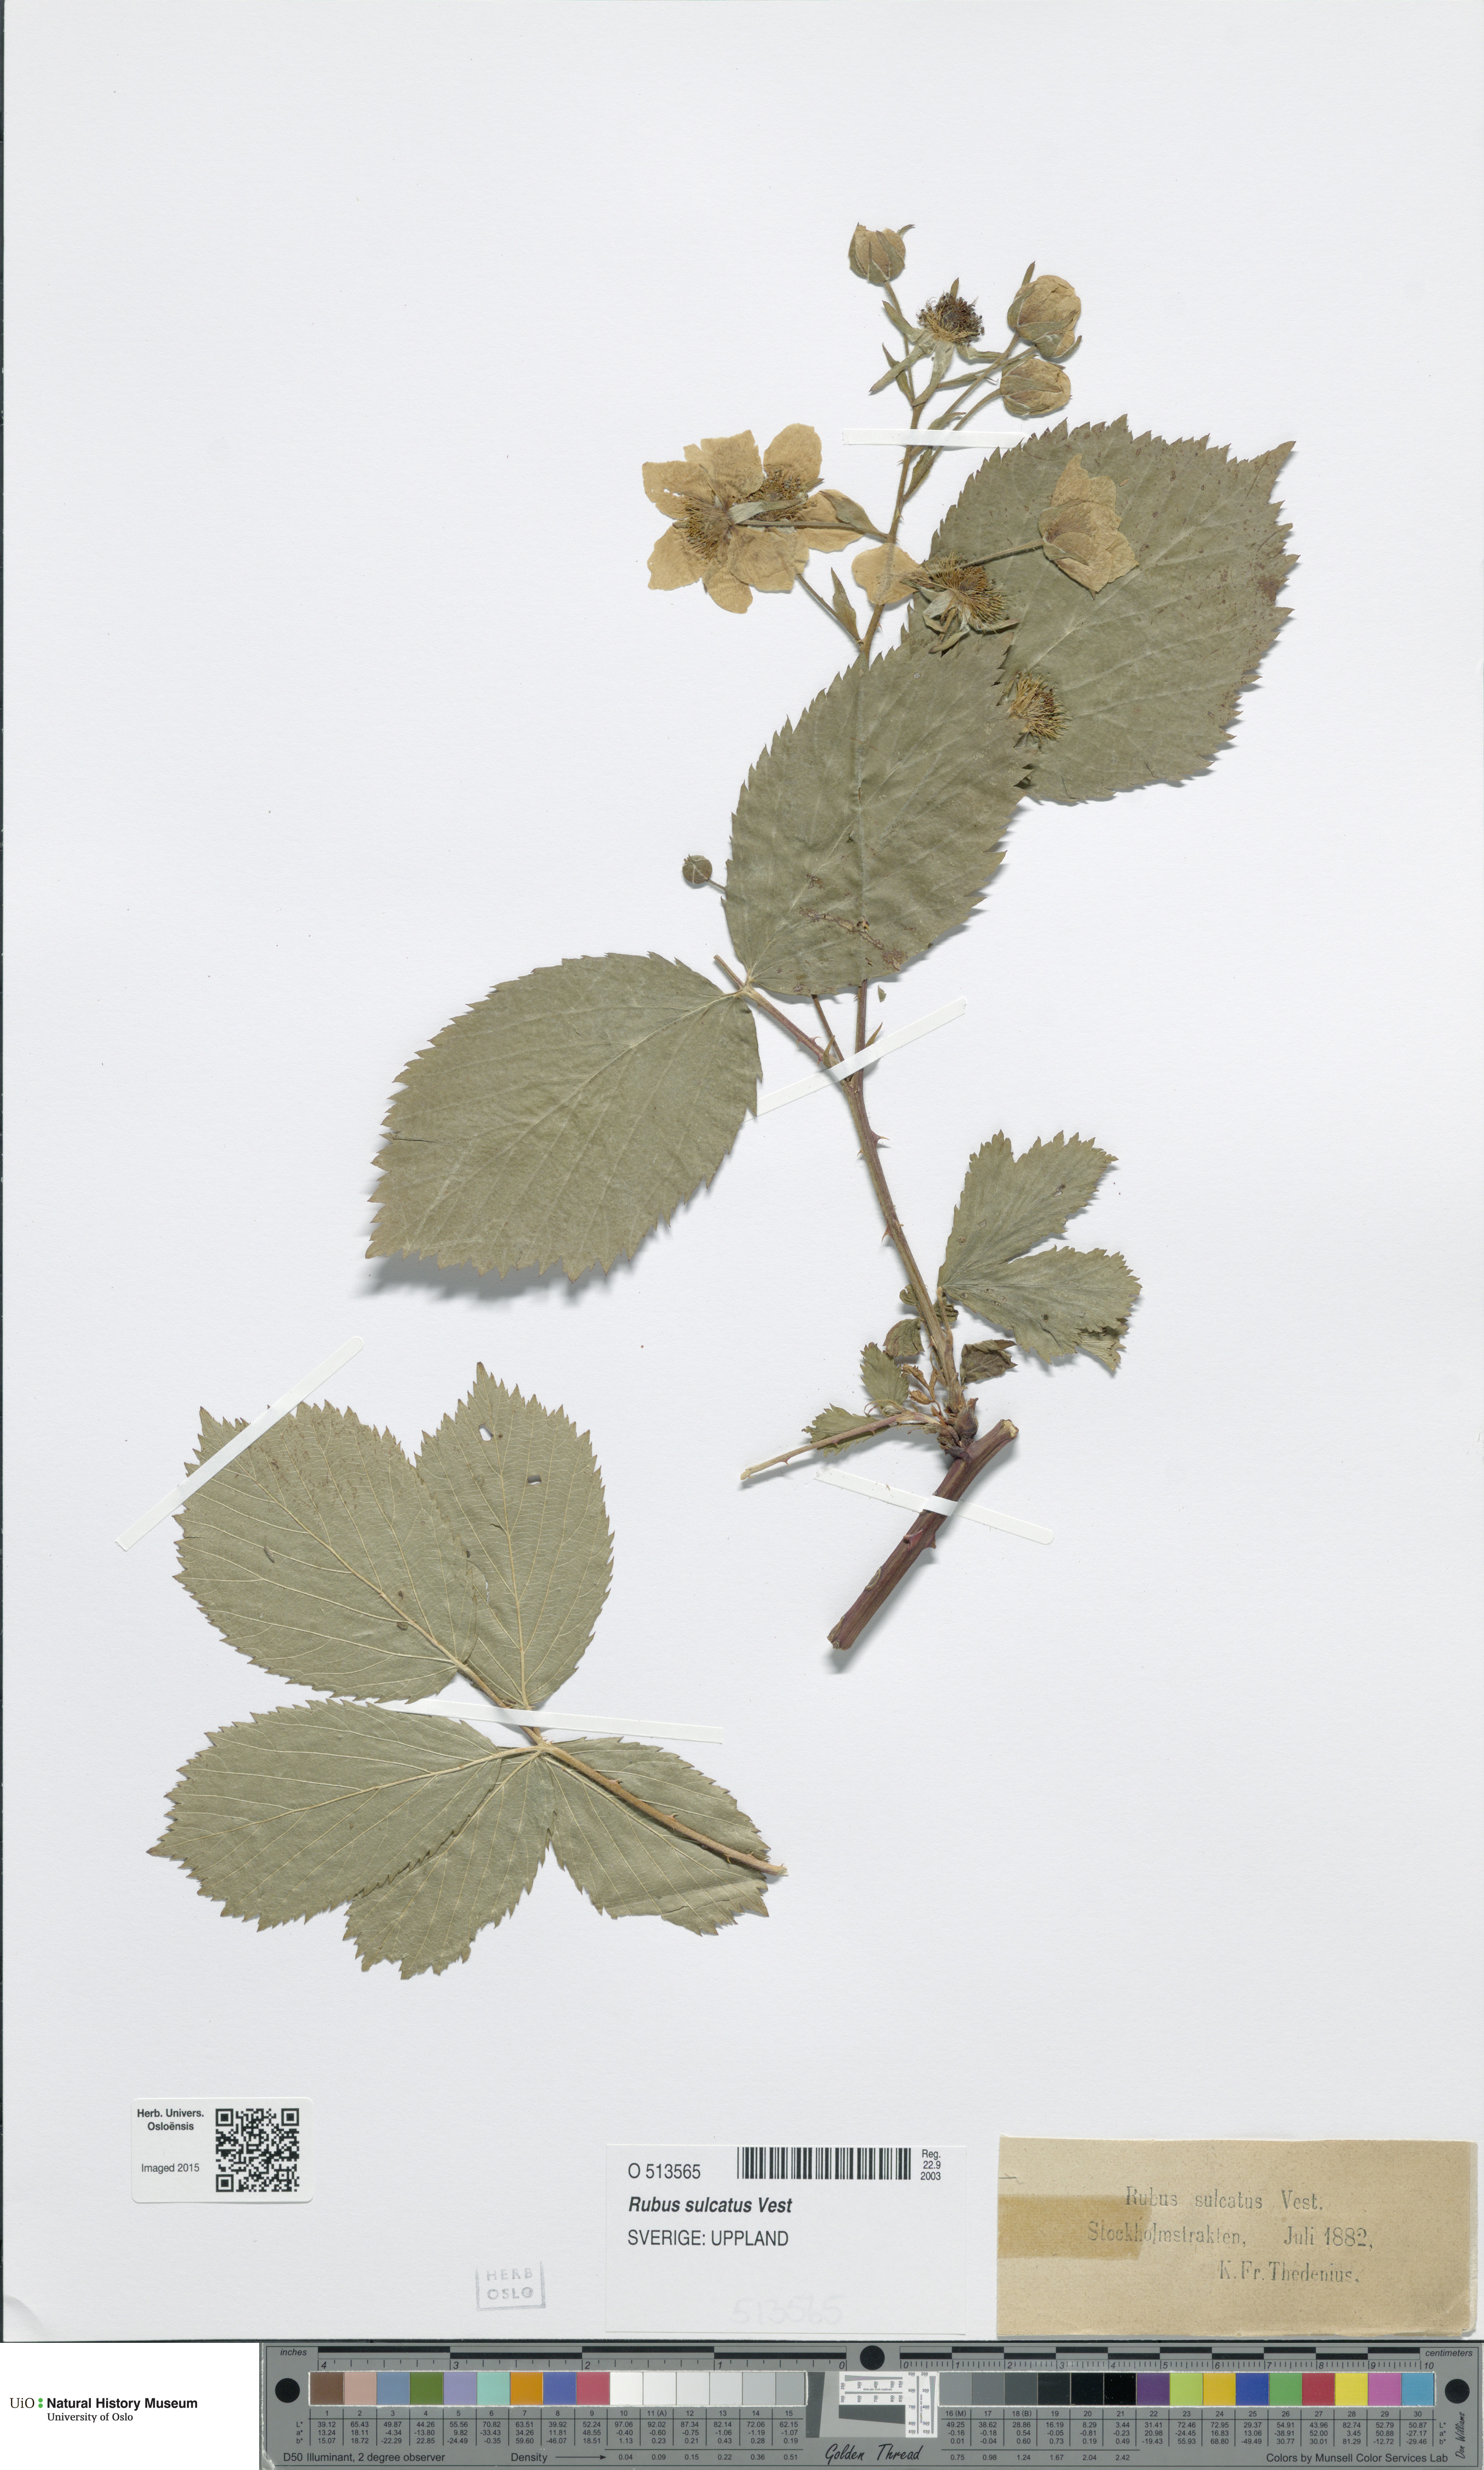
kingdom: Plantae
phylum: Tracheophyta
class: Magnoliopsida
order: Rosales
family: Rosaceae
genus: Rubus
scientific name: Rubus sulcatus
